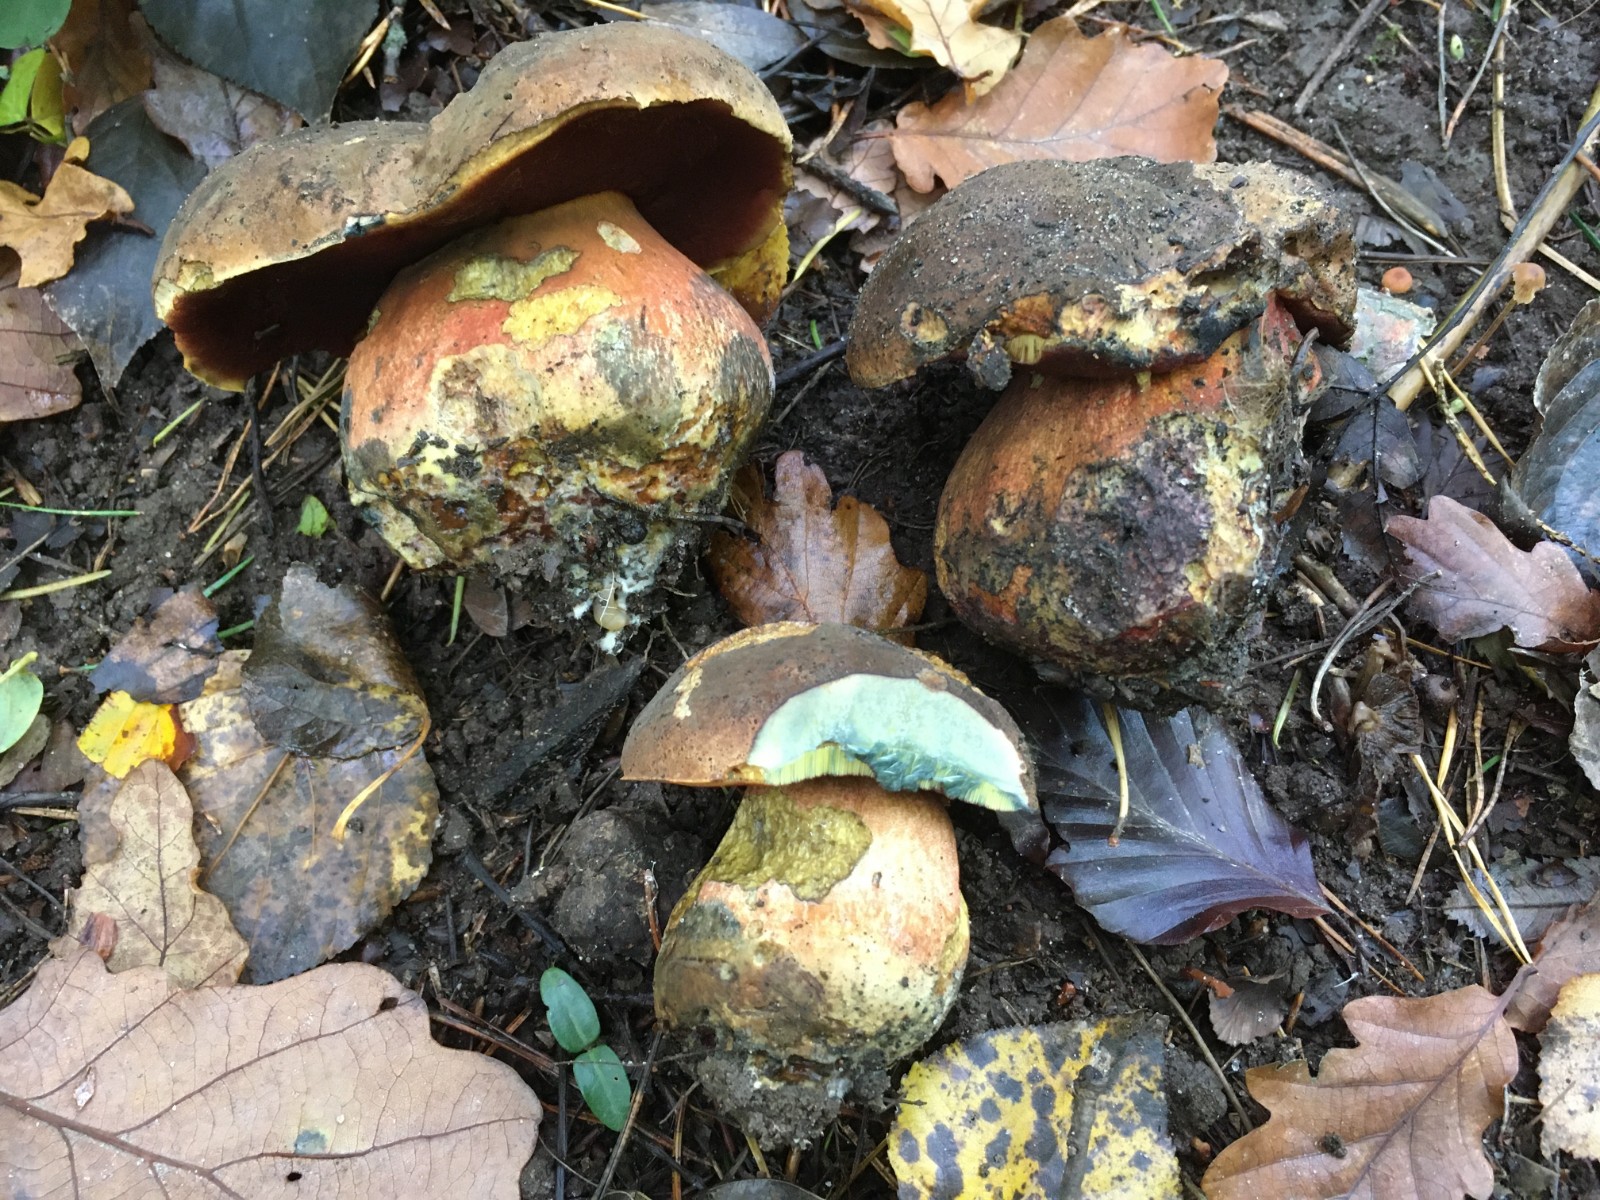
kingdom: Fungi
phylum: Basidiomycota
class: Agaricomycetes
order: Boletales
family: Boletaceae
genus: Neoboletus
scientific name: Neoboletus erythropus
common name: punktstokket indigorørhat
